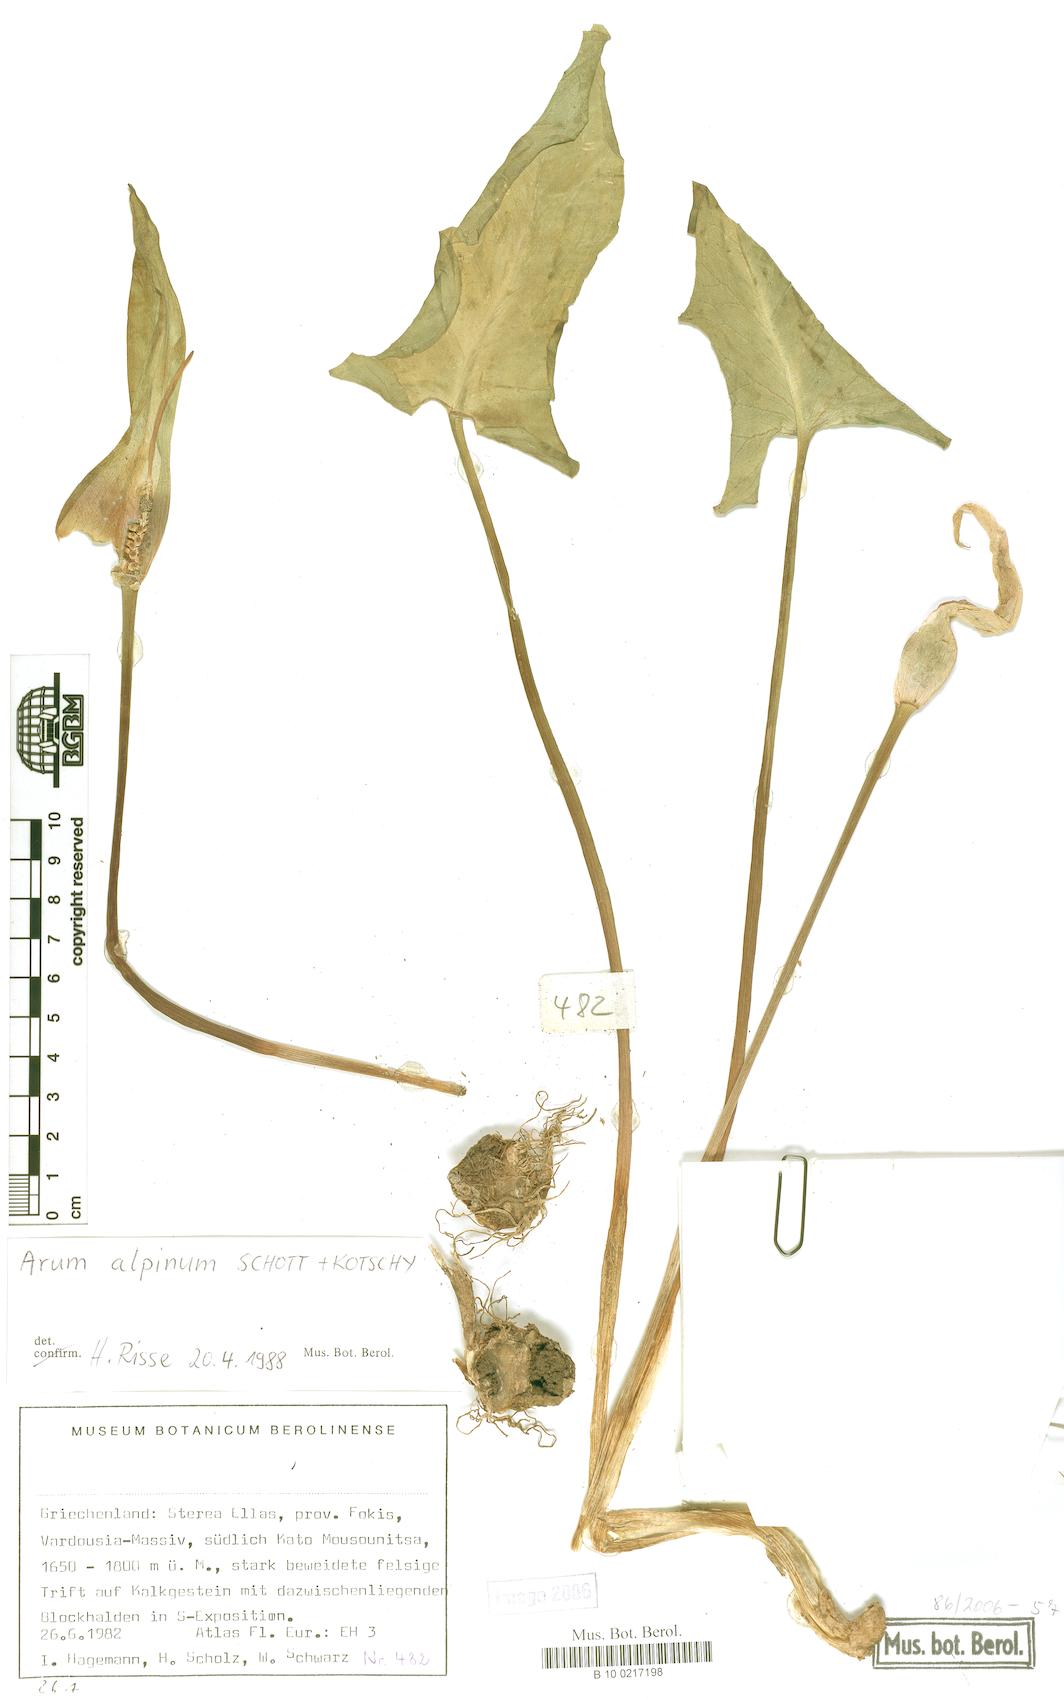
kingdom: Plantae
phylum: Tracheophyta
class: Liliopsida
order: Alismatales
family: Araceae
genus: Arum
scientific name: Arum cylindraceum
